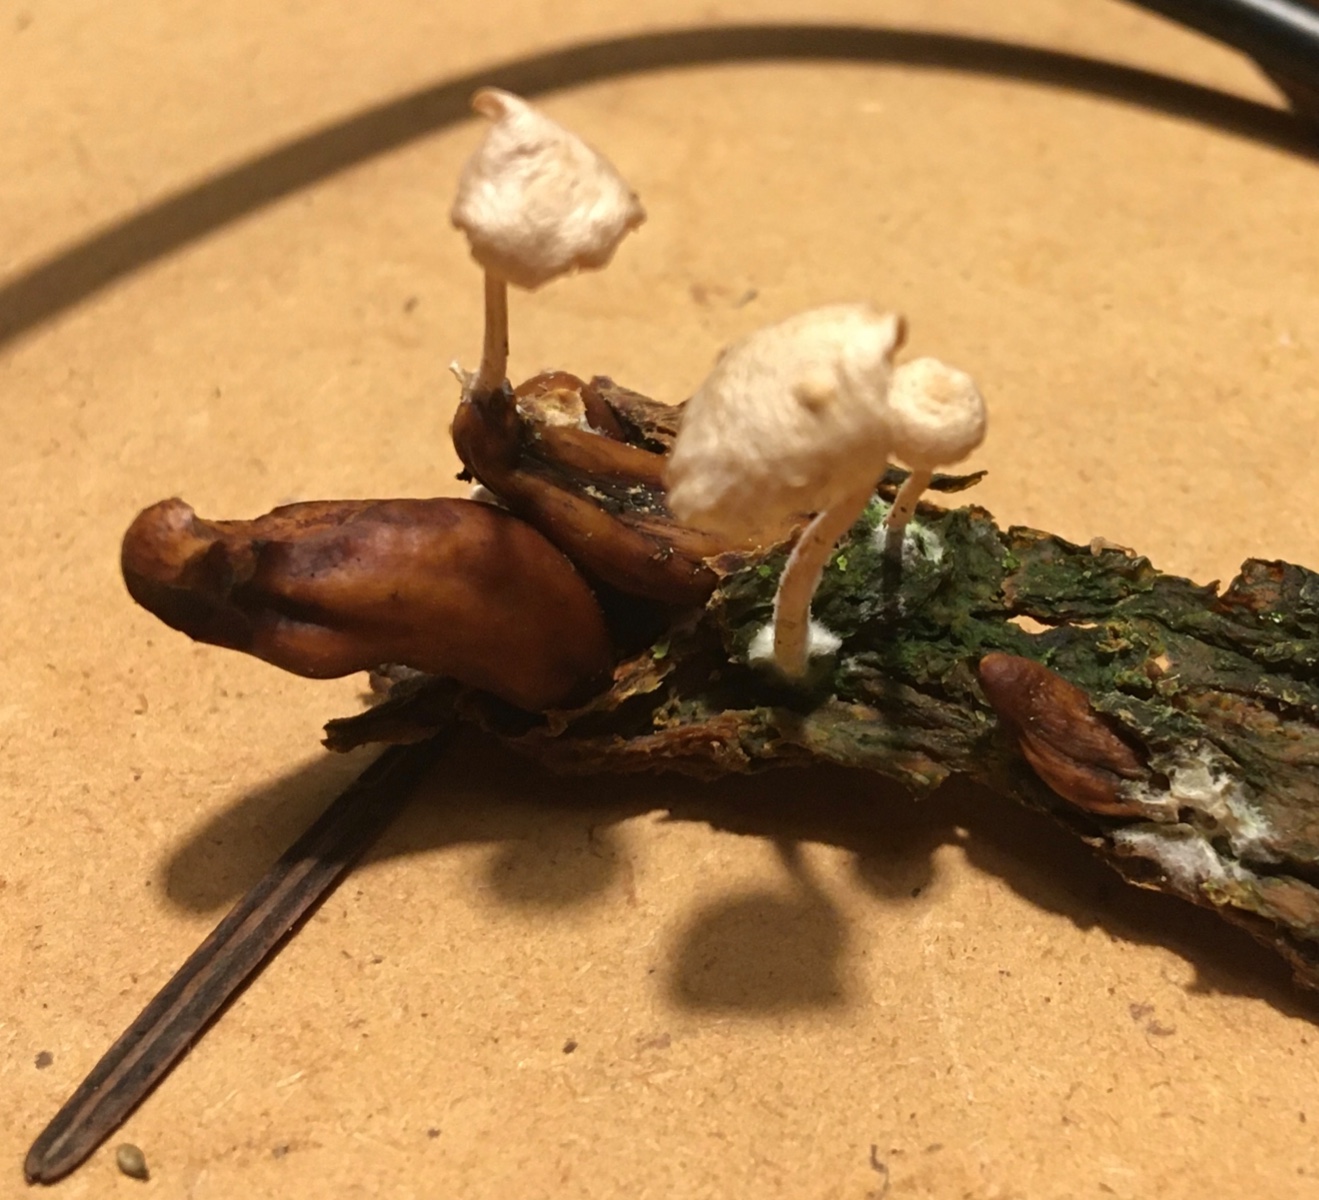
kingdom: Fungi
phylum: Basidiomycota
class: Agaricomycetes
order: Agaricales
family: Tricholomataceae
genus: Collybia
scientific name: Collybia tuberosa
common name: spidsknoldet lighat
